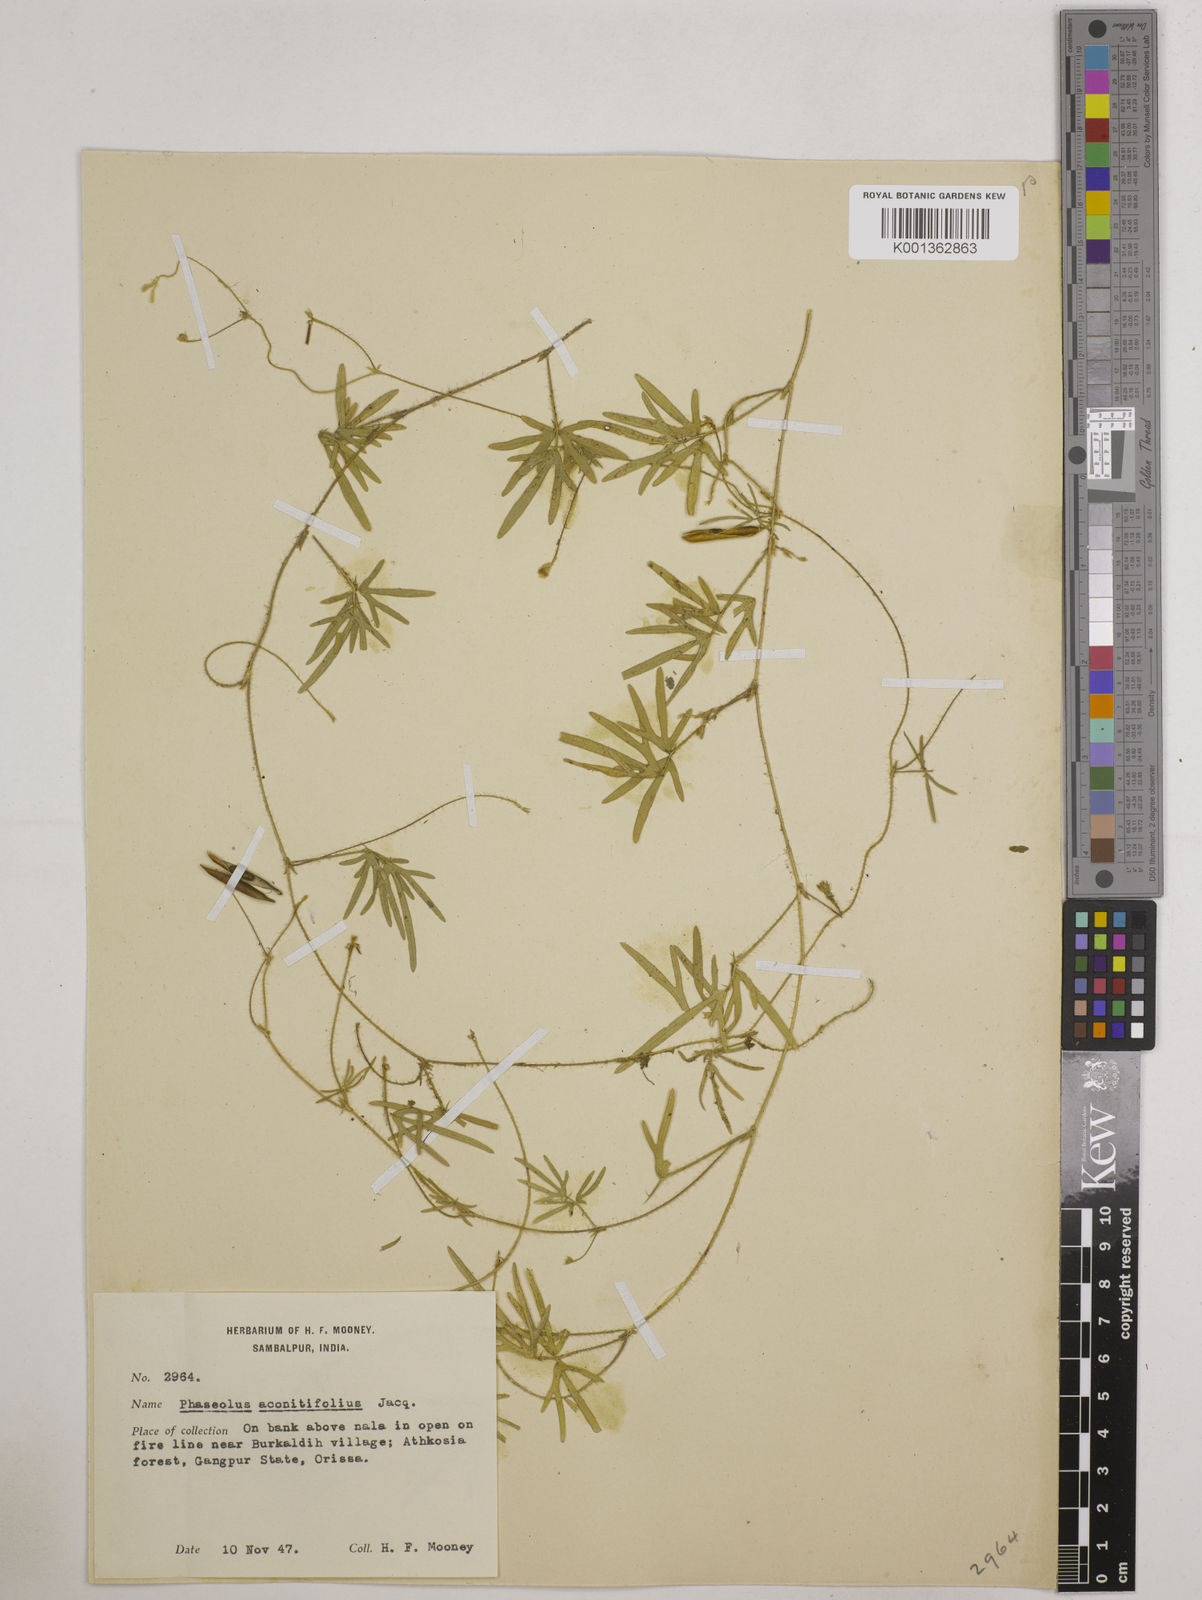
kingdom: Plantae
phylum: Tracheophyta
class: Magnoliopsida
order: Fabales
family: Fabaceae
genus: Vigna
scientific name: Vigna aconitifolia
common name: Dew bean
